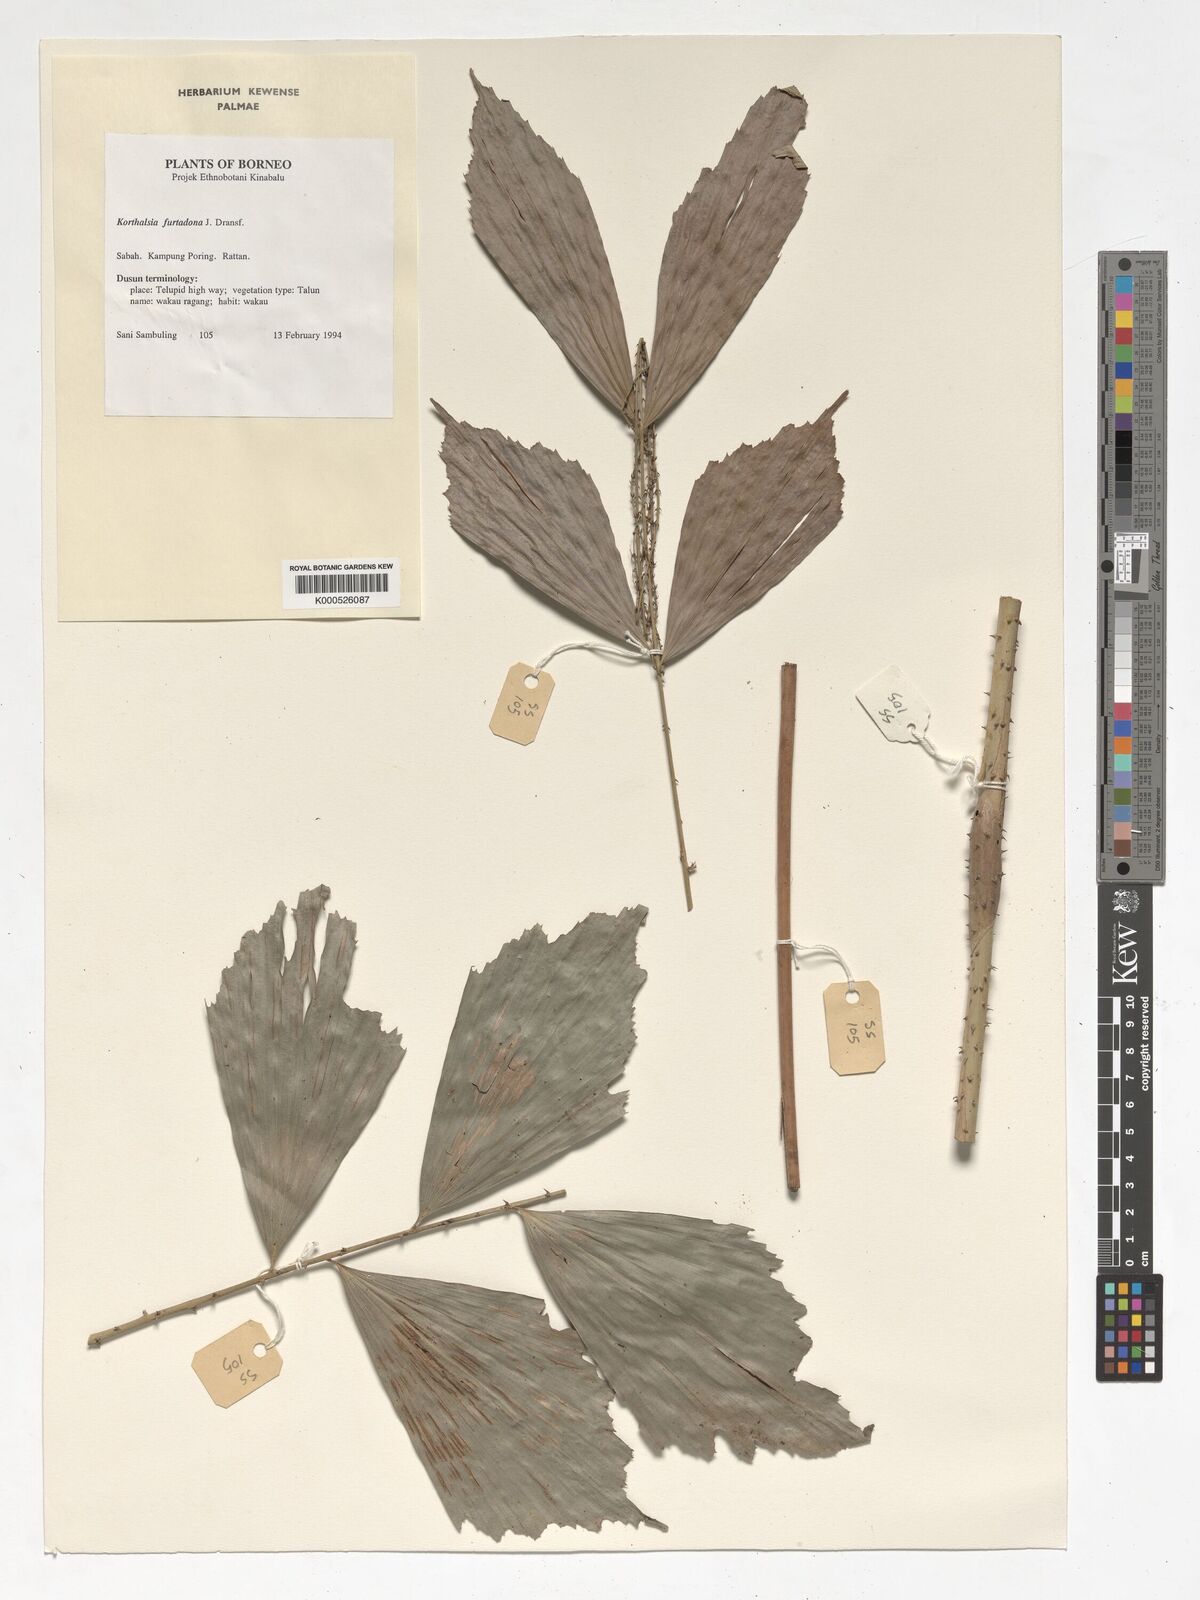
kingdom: Plantae
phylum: Tracheophyta
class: Liliopsida
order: Arecales
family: Arecaceae
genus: Korthalsia
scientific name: Korthalsia furtadoana
